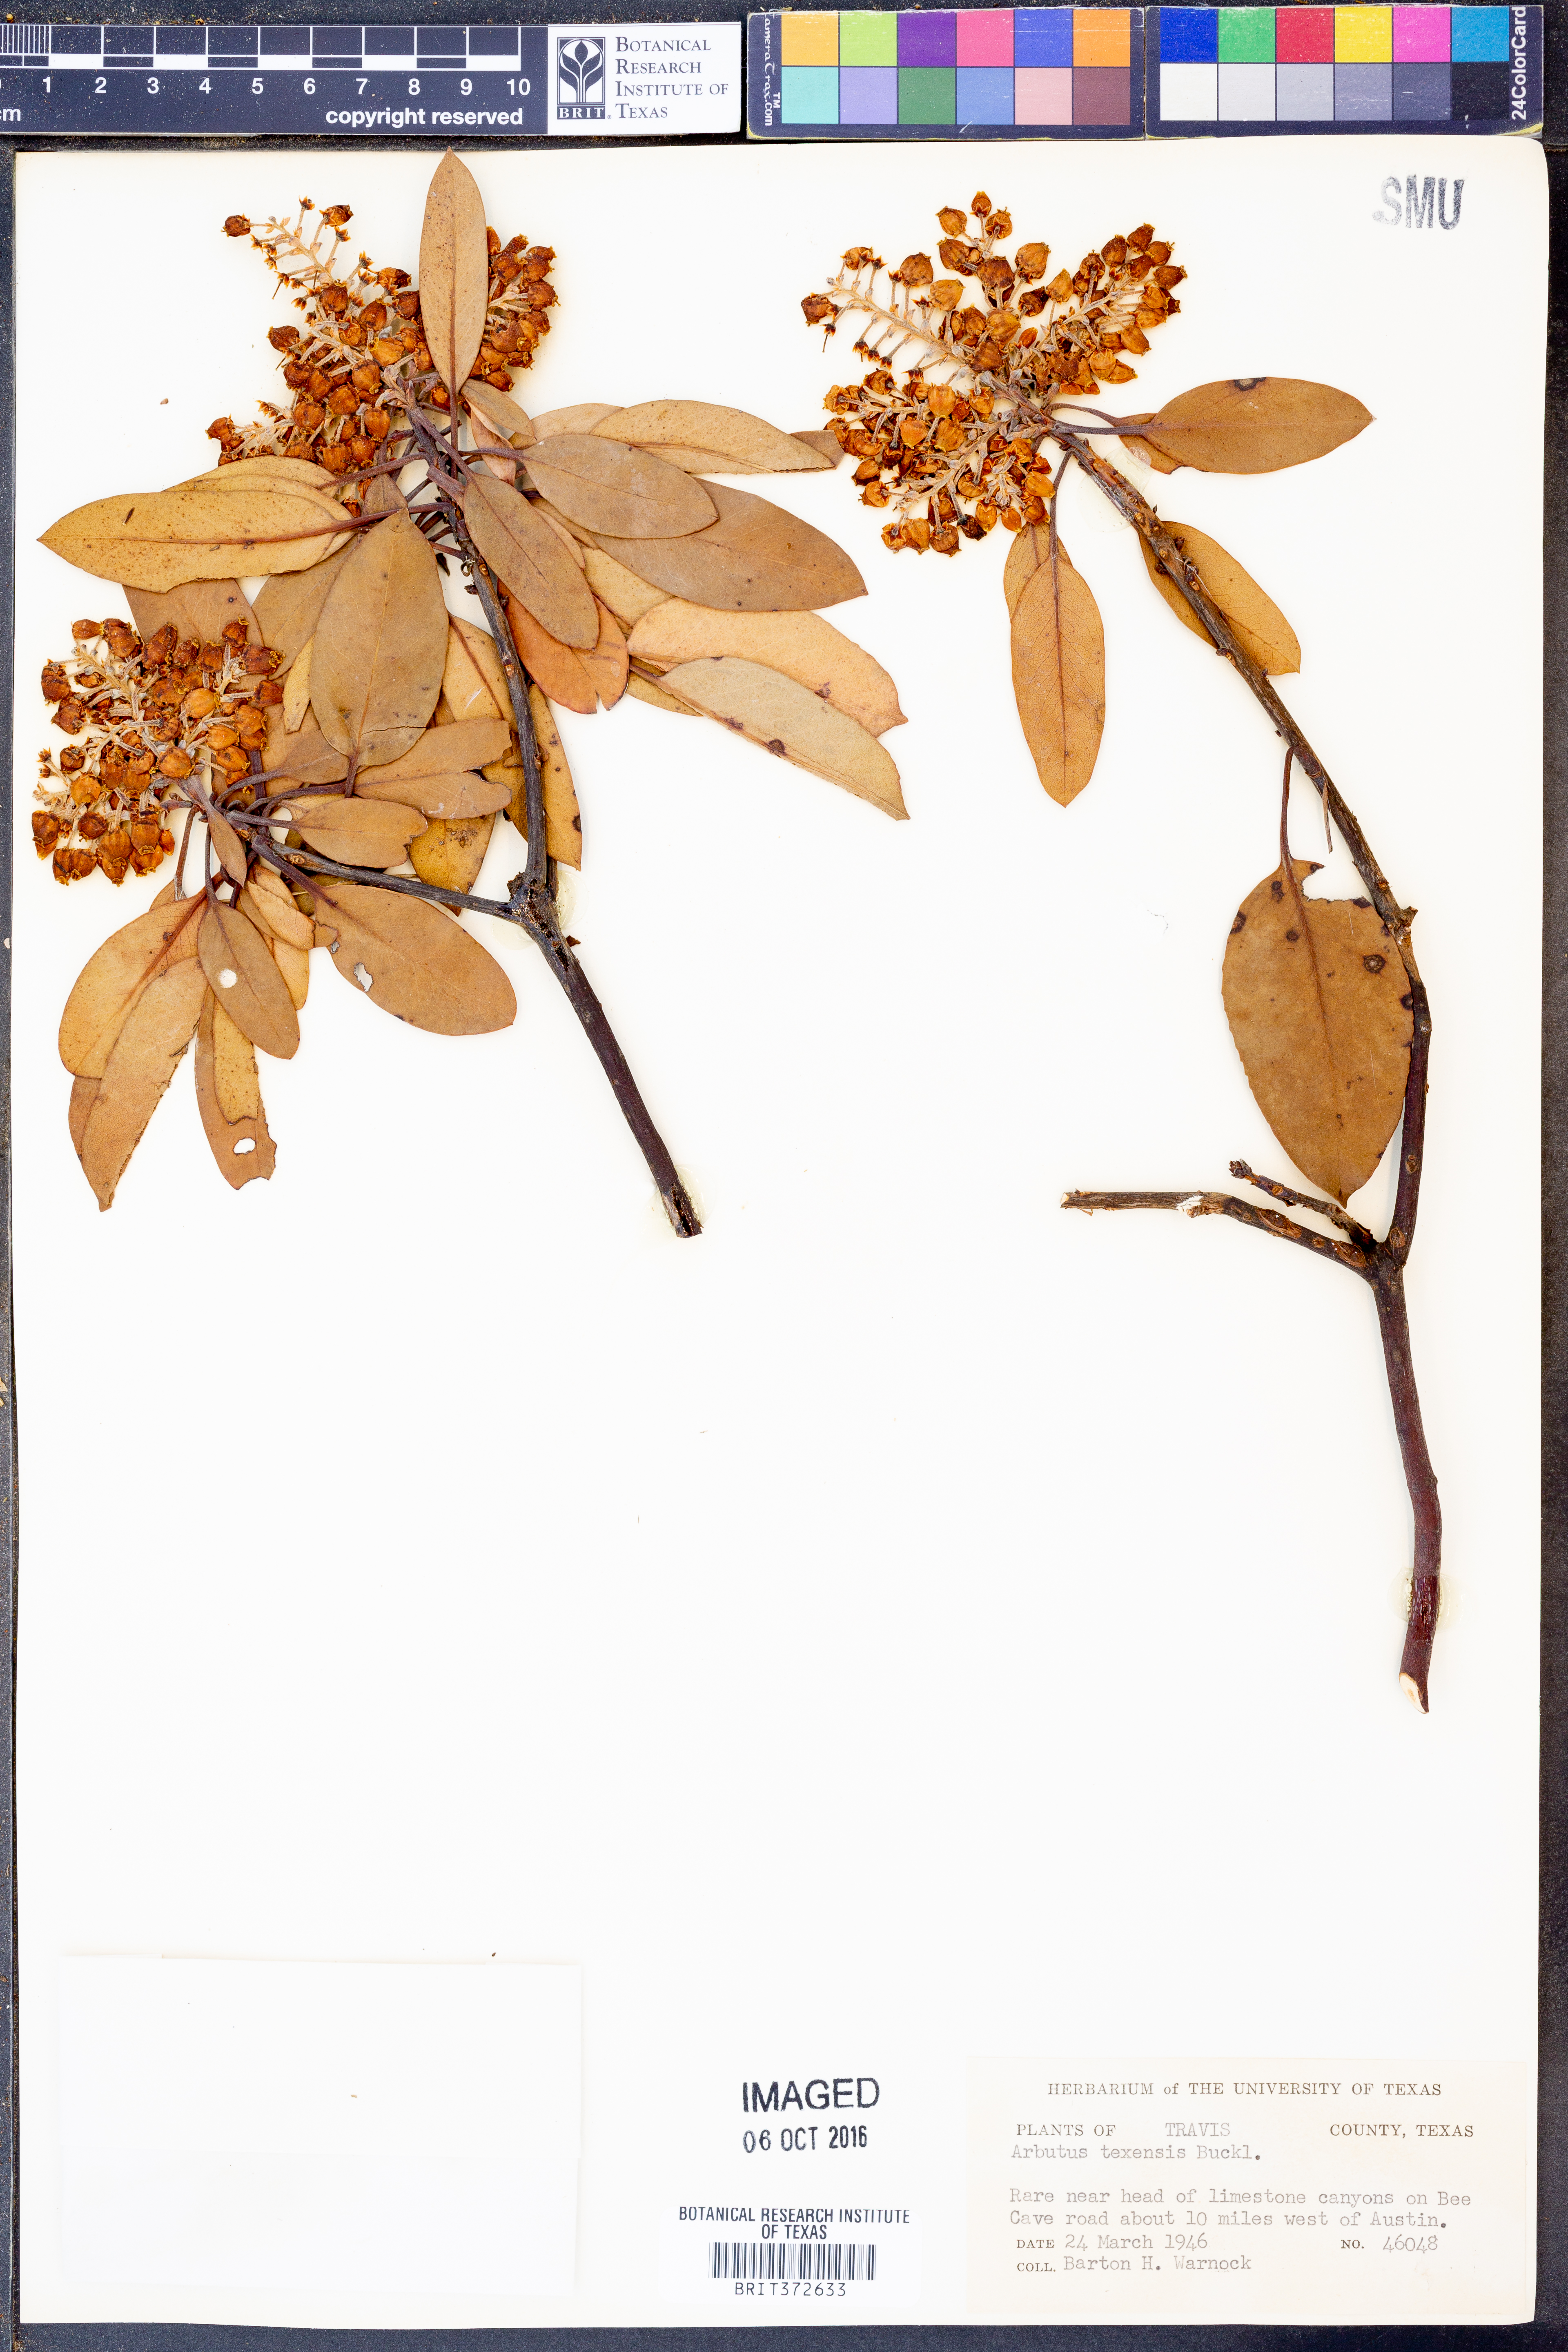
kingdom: Plantae
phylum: Tracheophyta
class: Magnoliopsida
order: Ericales
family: Ericaceae
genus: Arbutus
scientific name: Arbutus xalapensis
